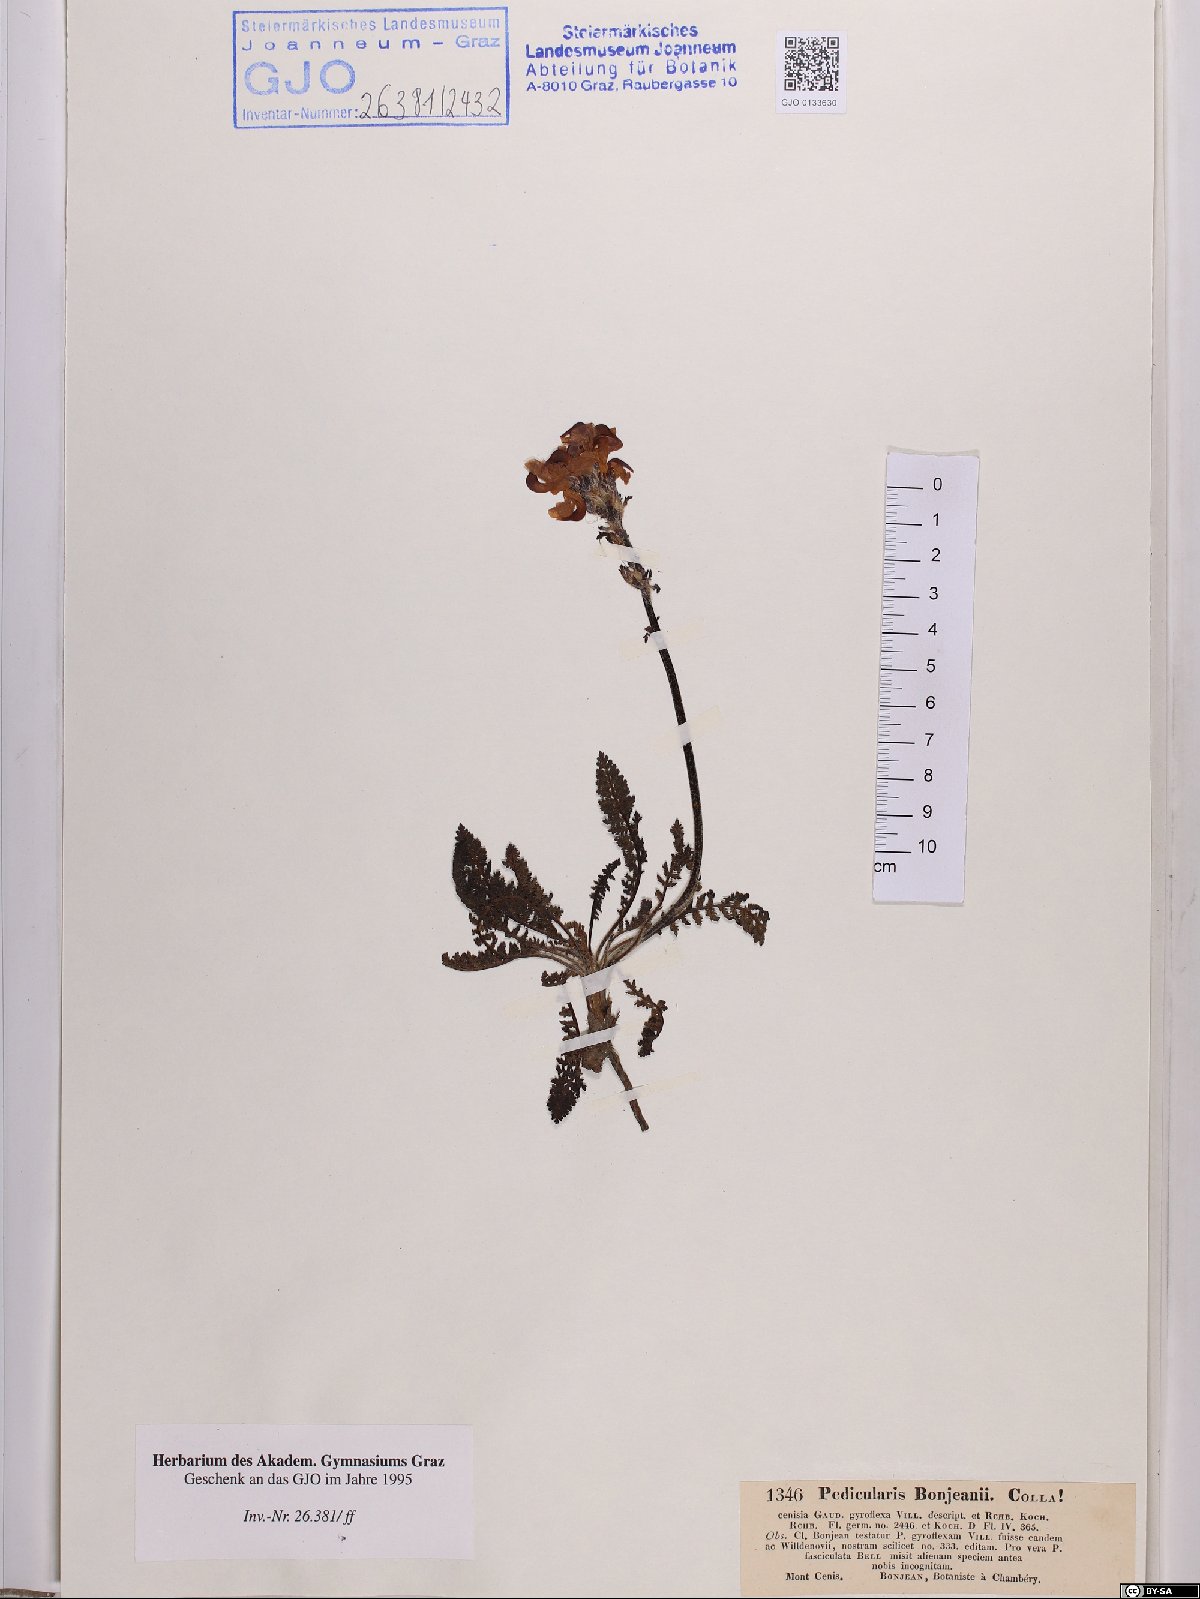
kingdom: Plantae
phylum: Tracheophyta
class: Magnoliopsida
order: Lamiales
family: Orobanchaceae
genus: Pedicularis
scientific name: Pedicularis cenisia
